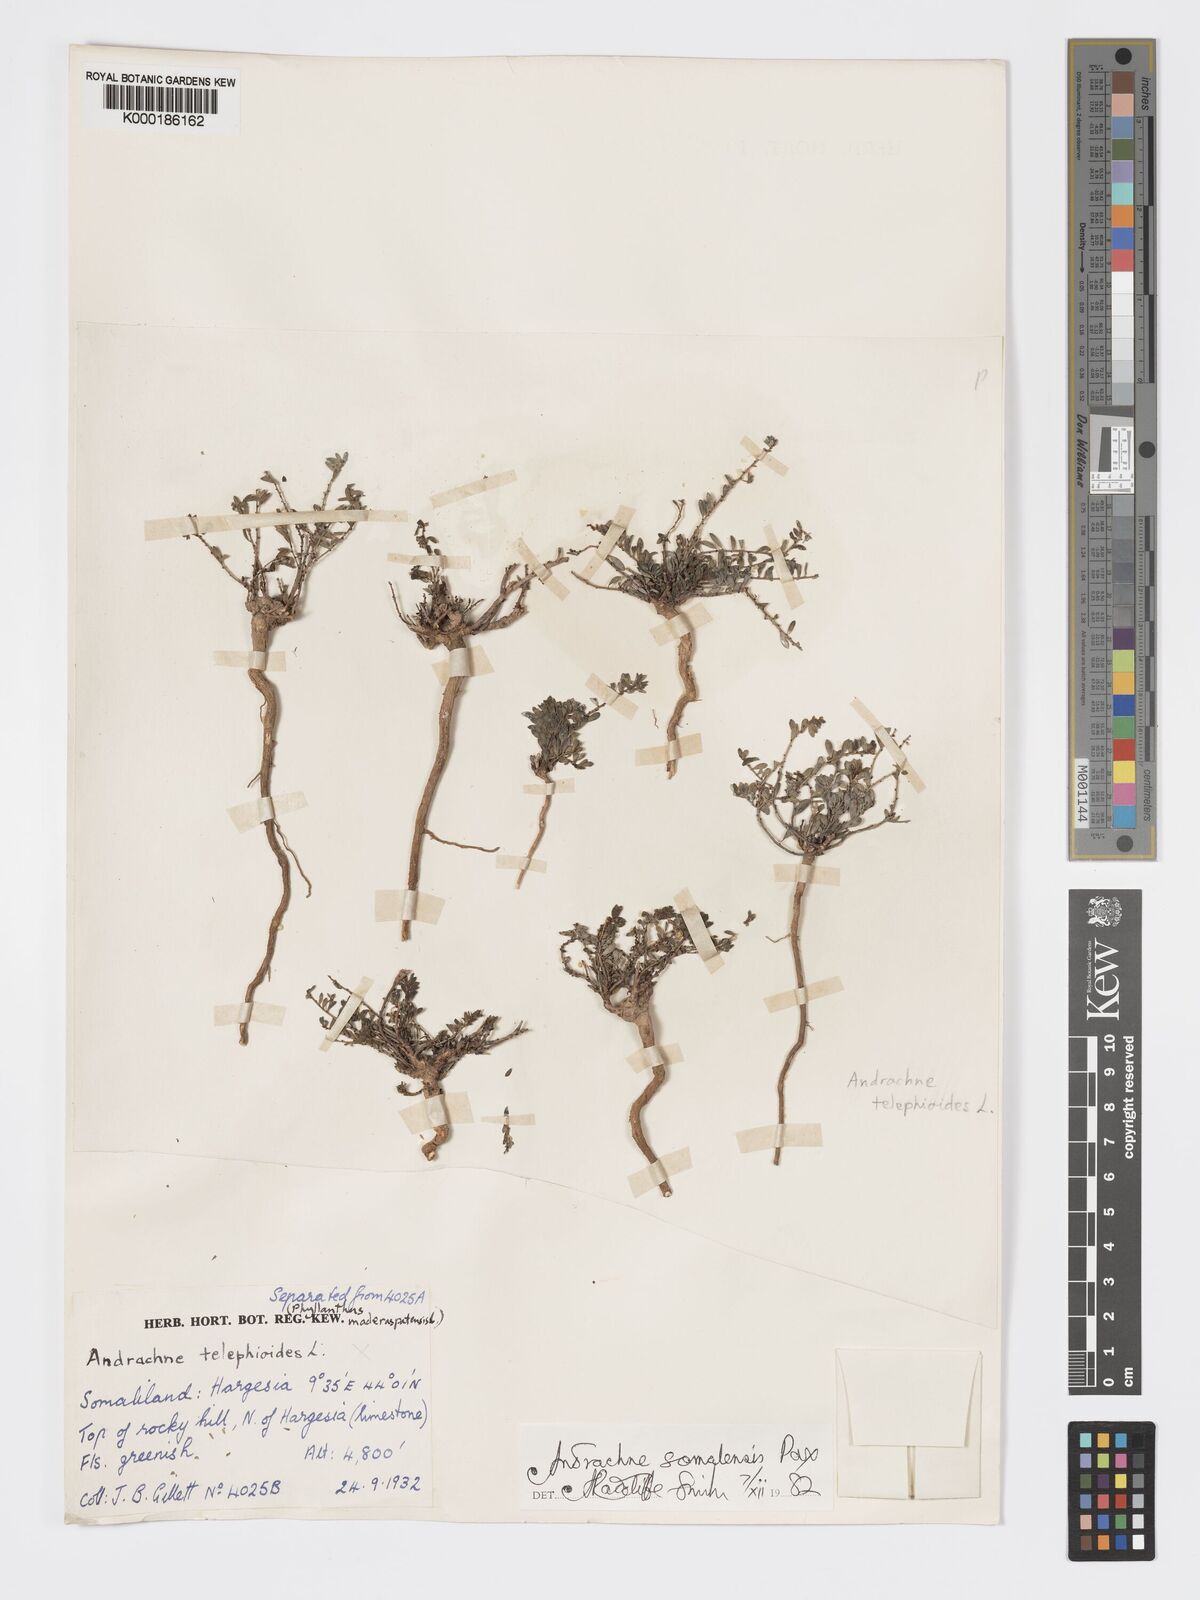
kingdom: Plantae
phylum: Tracheophyta
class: Magnoliopsida
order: Malpighiales
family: Phyllanthaceae
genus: Andrachne
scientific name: Andrachne schweinfurthii
